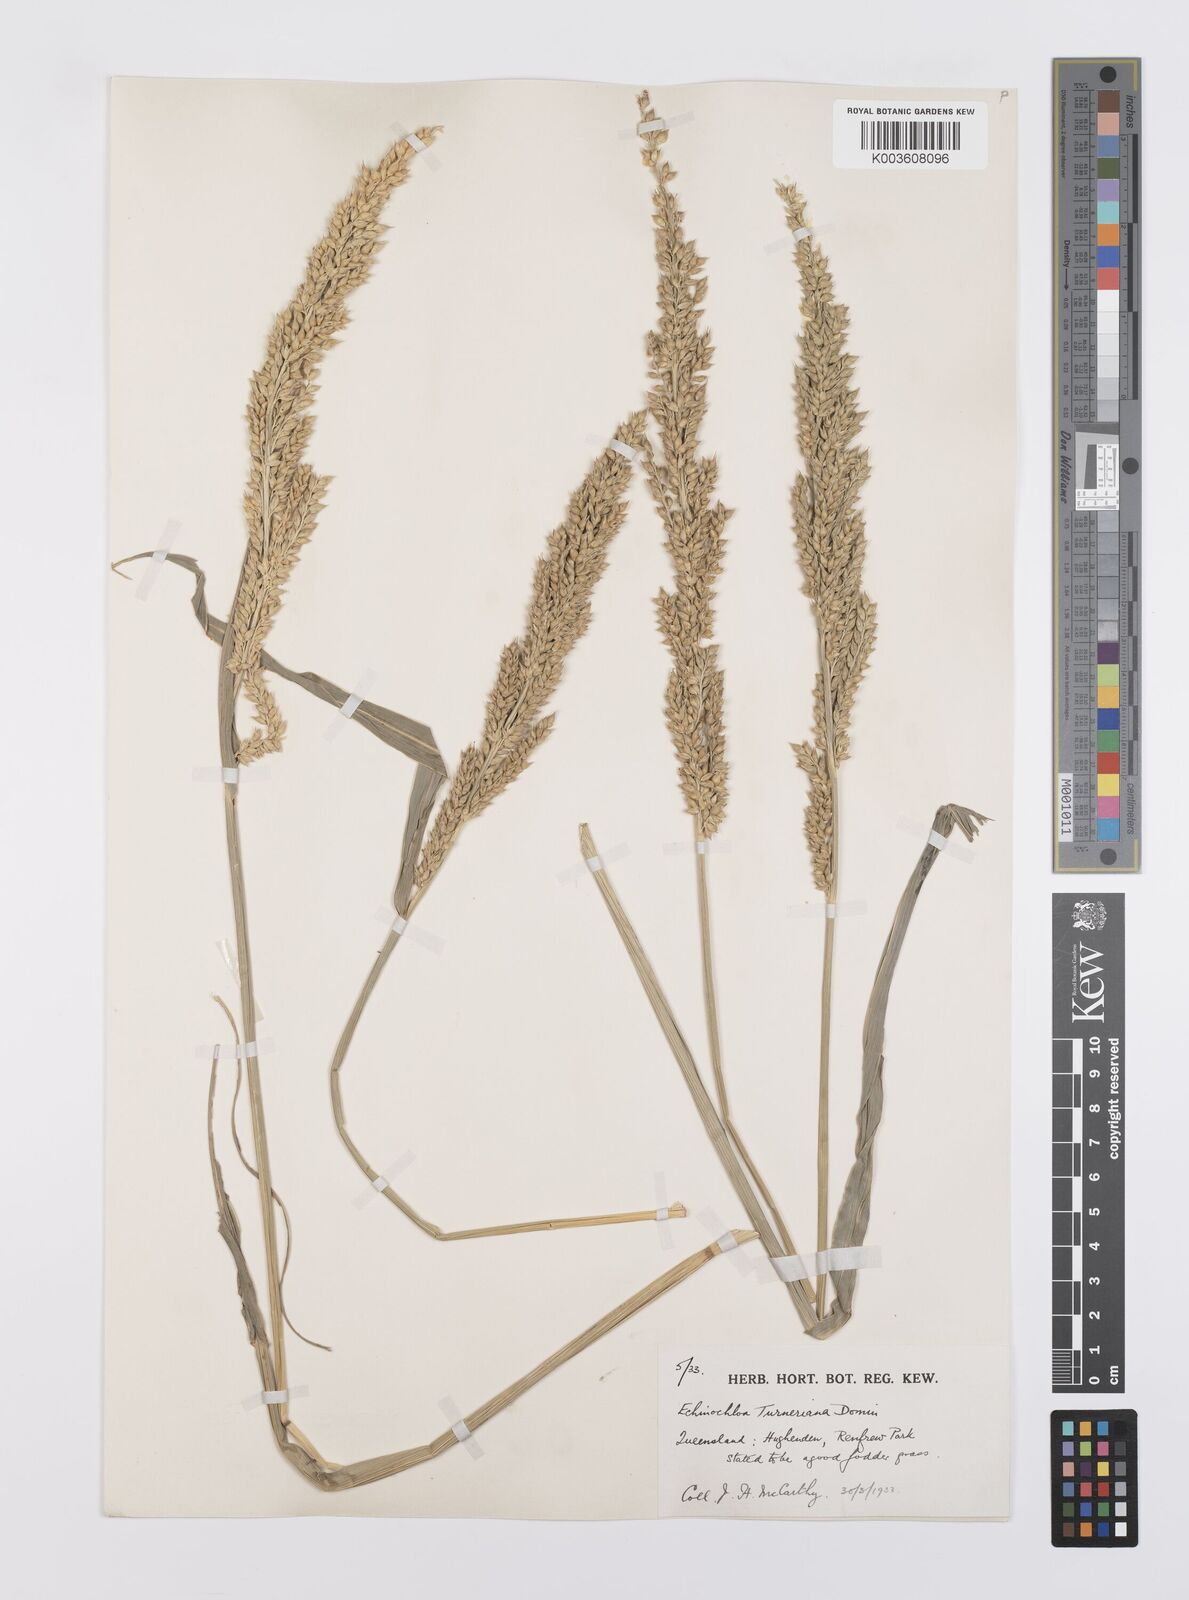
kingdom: Plantae
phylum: Tracheophyta
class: Liliopsida
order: Poales
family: Poaceae
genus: Echinochloa
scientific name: Echinochloa turneriana
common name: Channel millet
